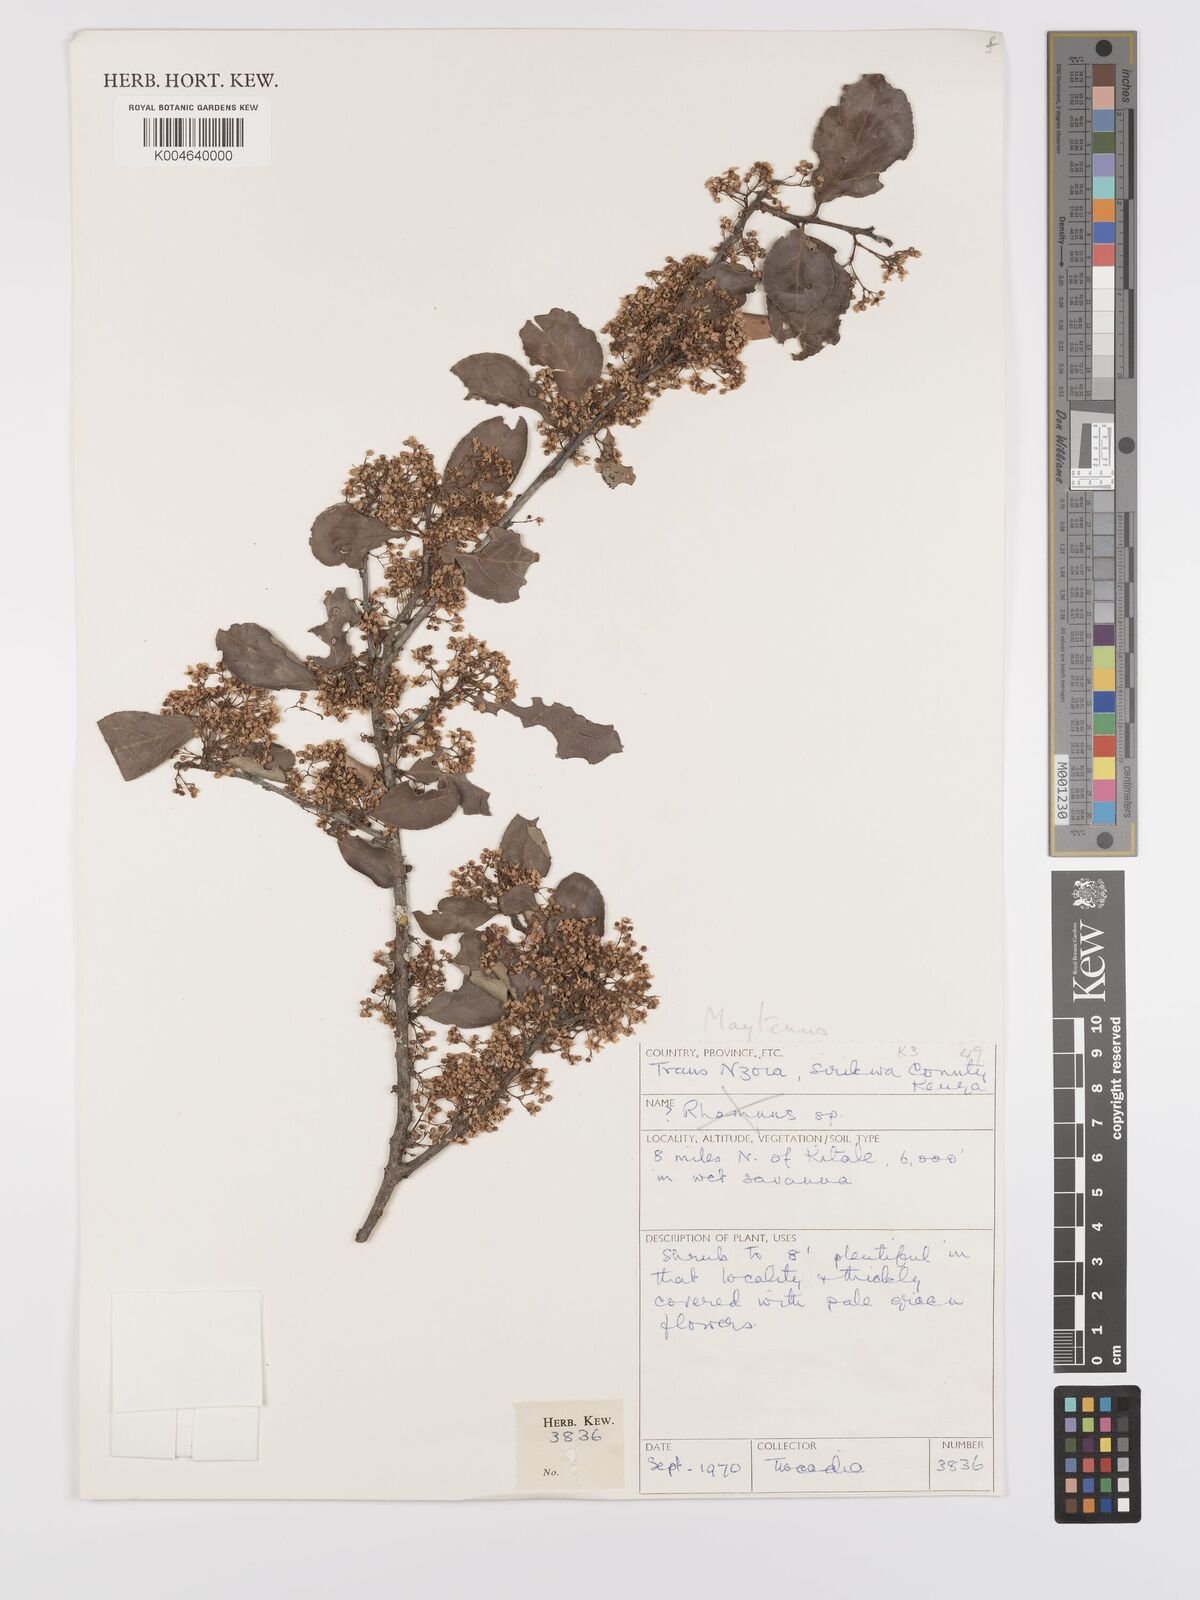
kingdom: Plantae
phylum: Tracheophyta
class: Magnoliopsida
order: Celastrales
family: Celastraceae
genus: Gymnosporia
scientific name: Gymnosporia arbutifolia
